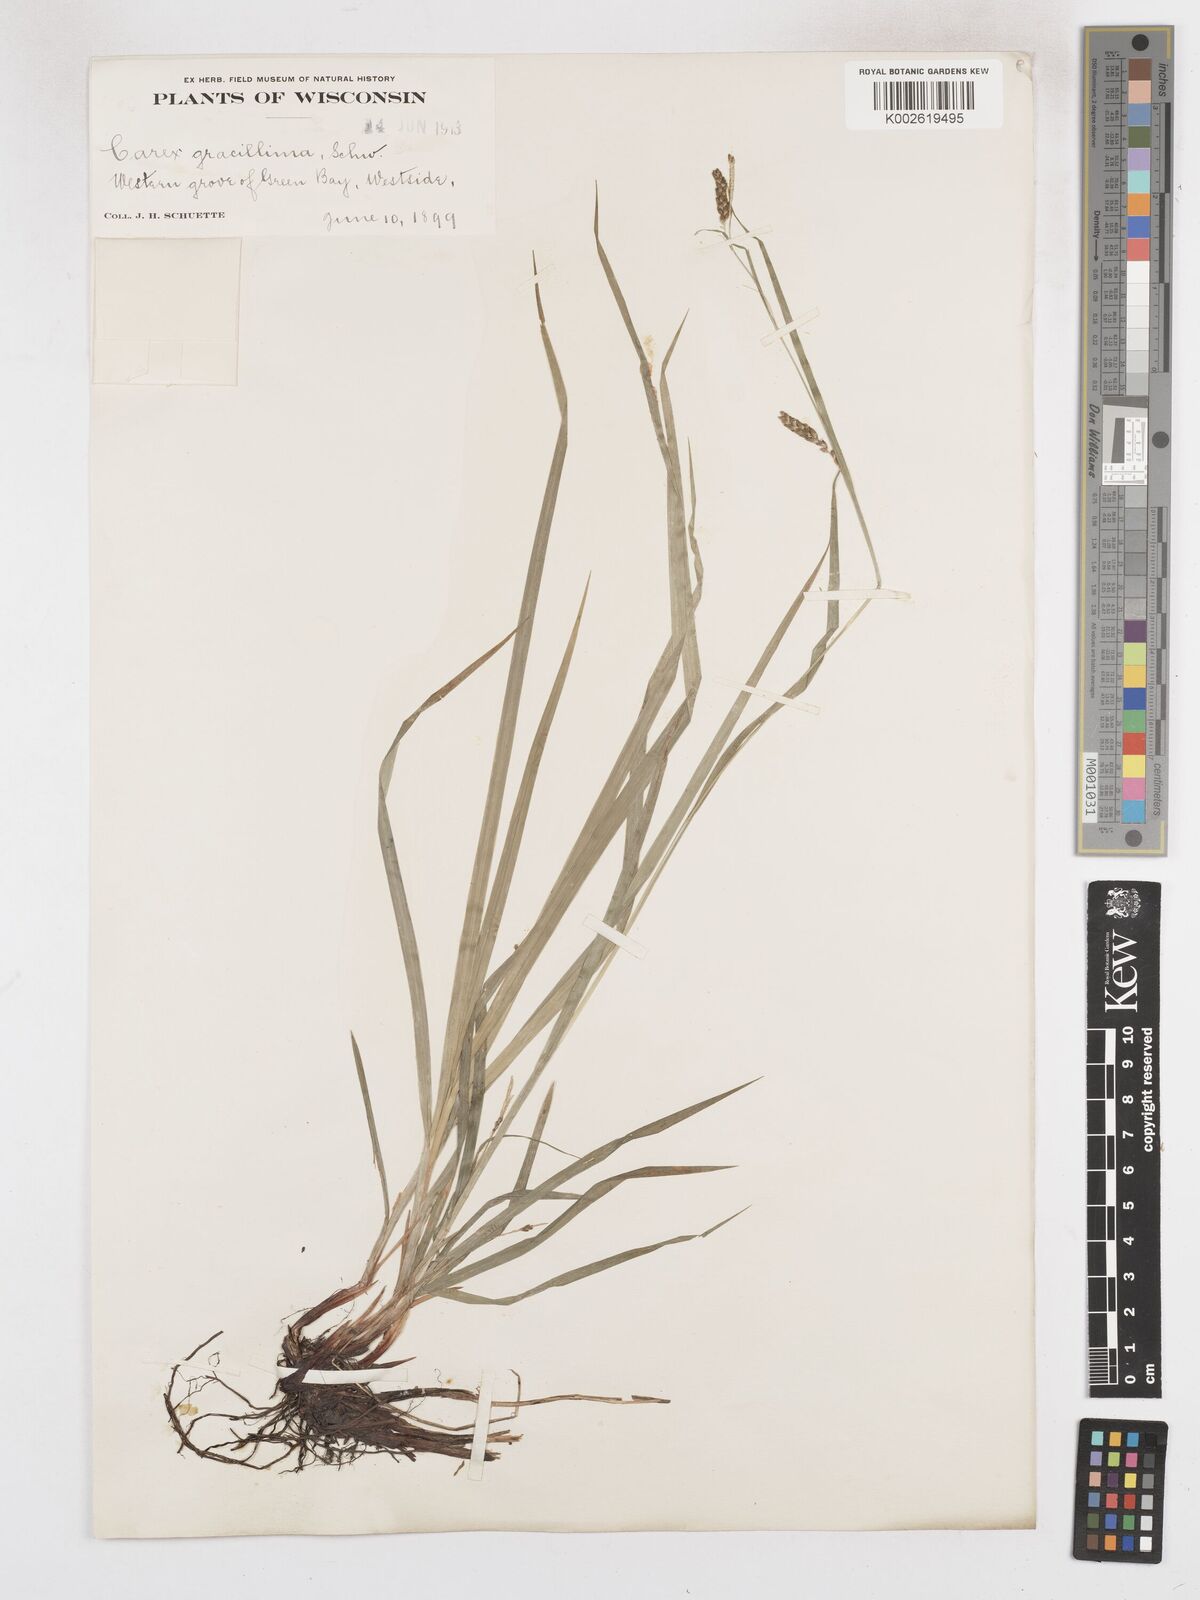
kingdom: Plantae
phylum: Tracheophyta
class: Liliopsida
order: Poales
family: Cyperaceae
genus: Carex
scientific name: Carex gracillima
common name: Graceful sedge
